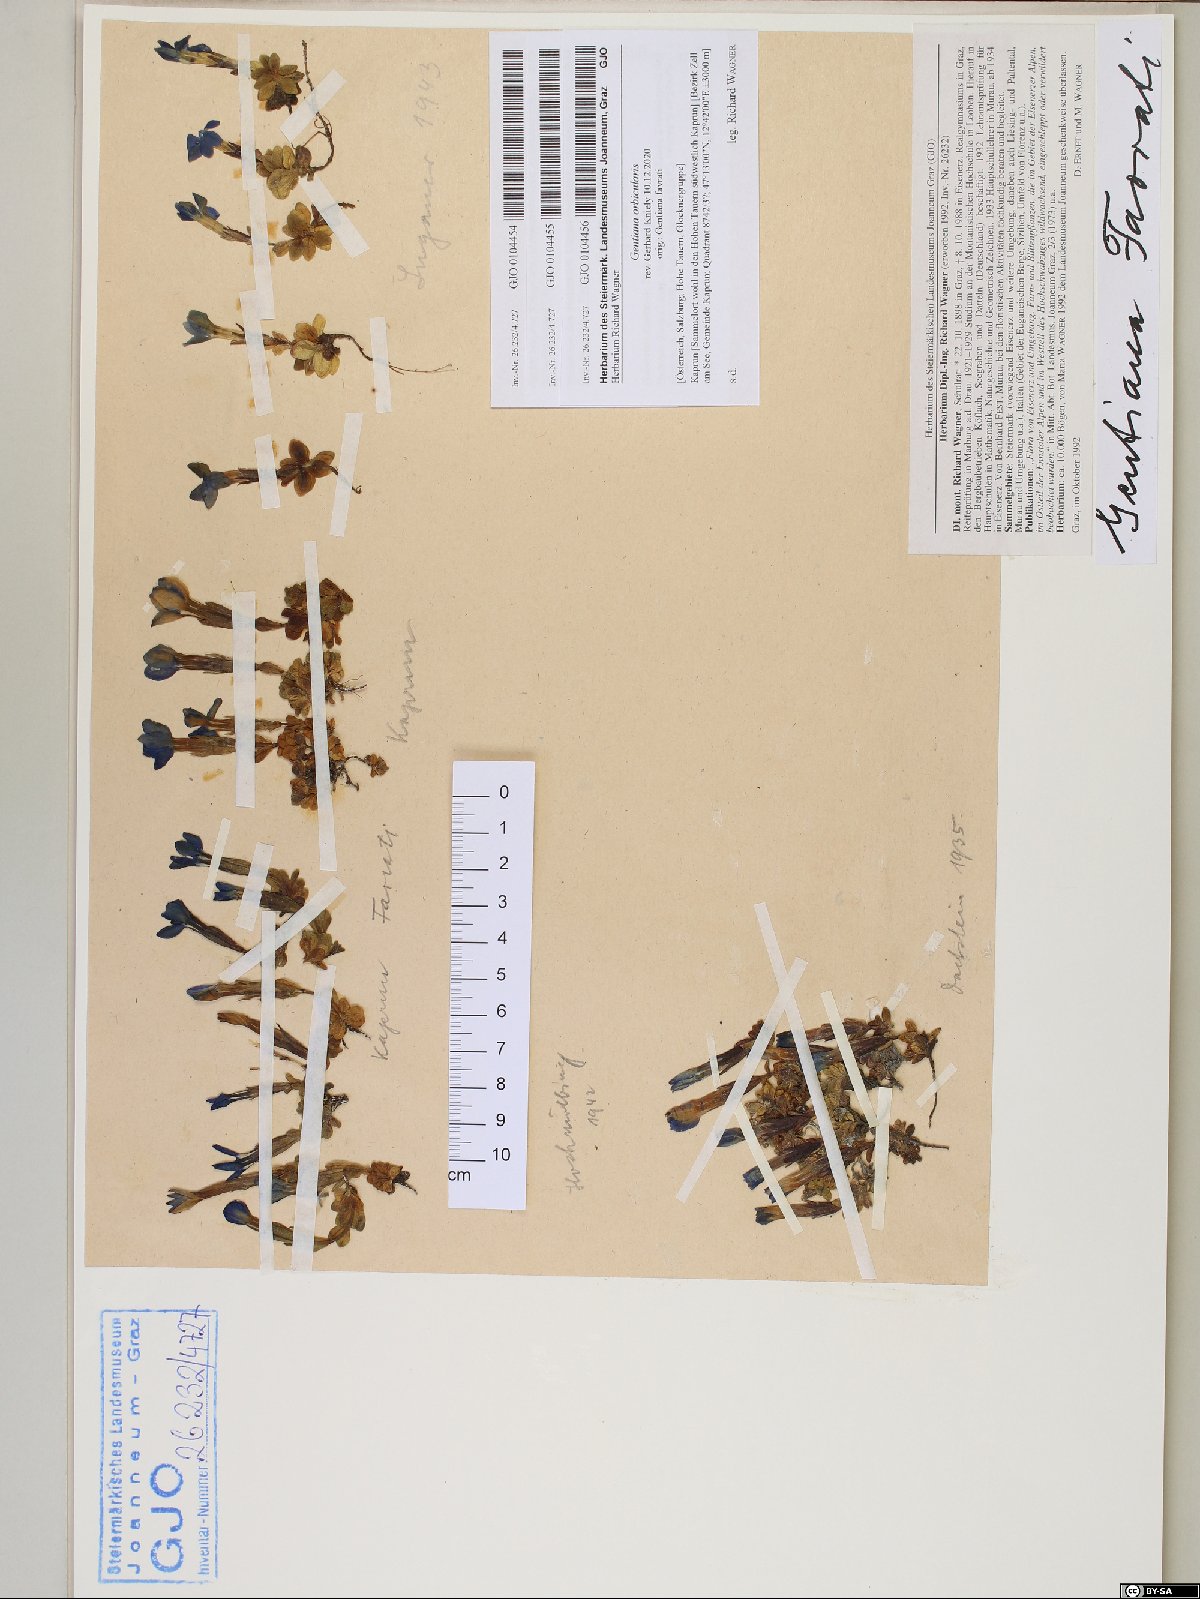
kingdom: Plantae
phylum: Tracheophyta
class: Magnoliopsida
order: Gentianales
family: Gentianaceae
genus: Gentiana
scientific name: Gentiana orbicularis
